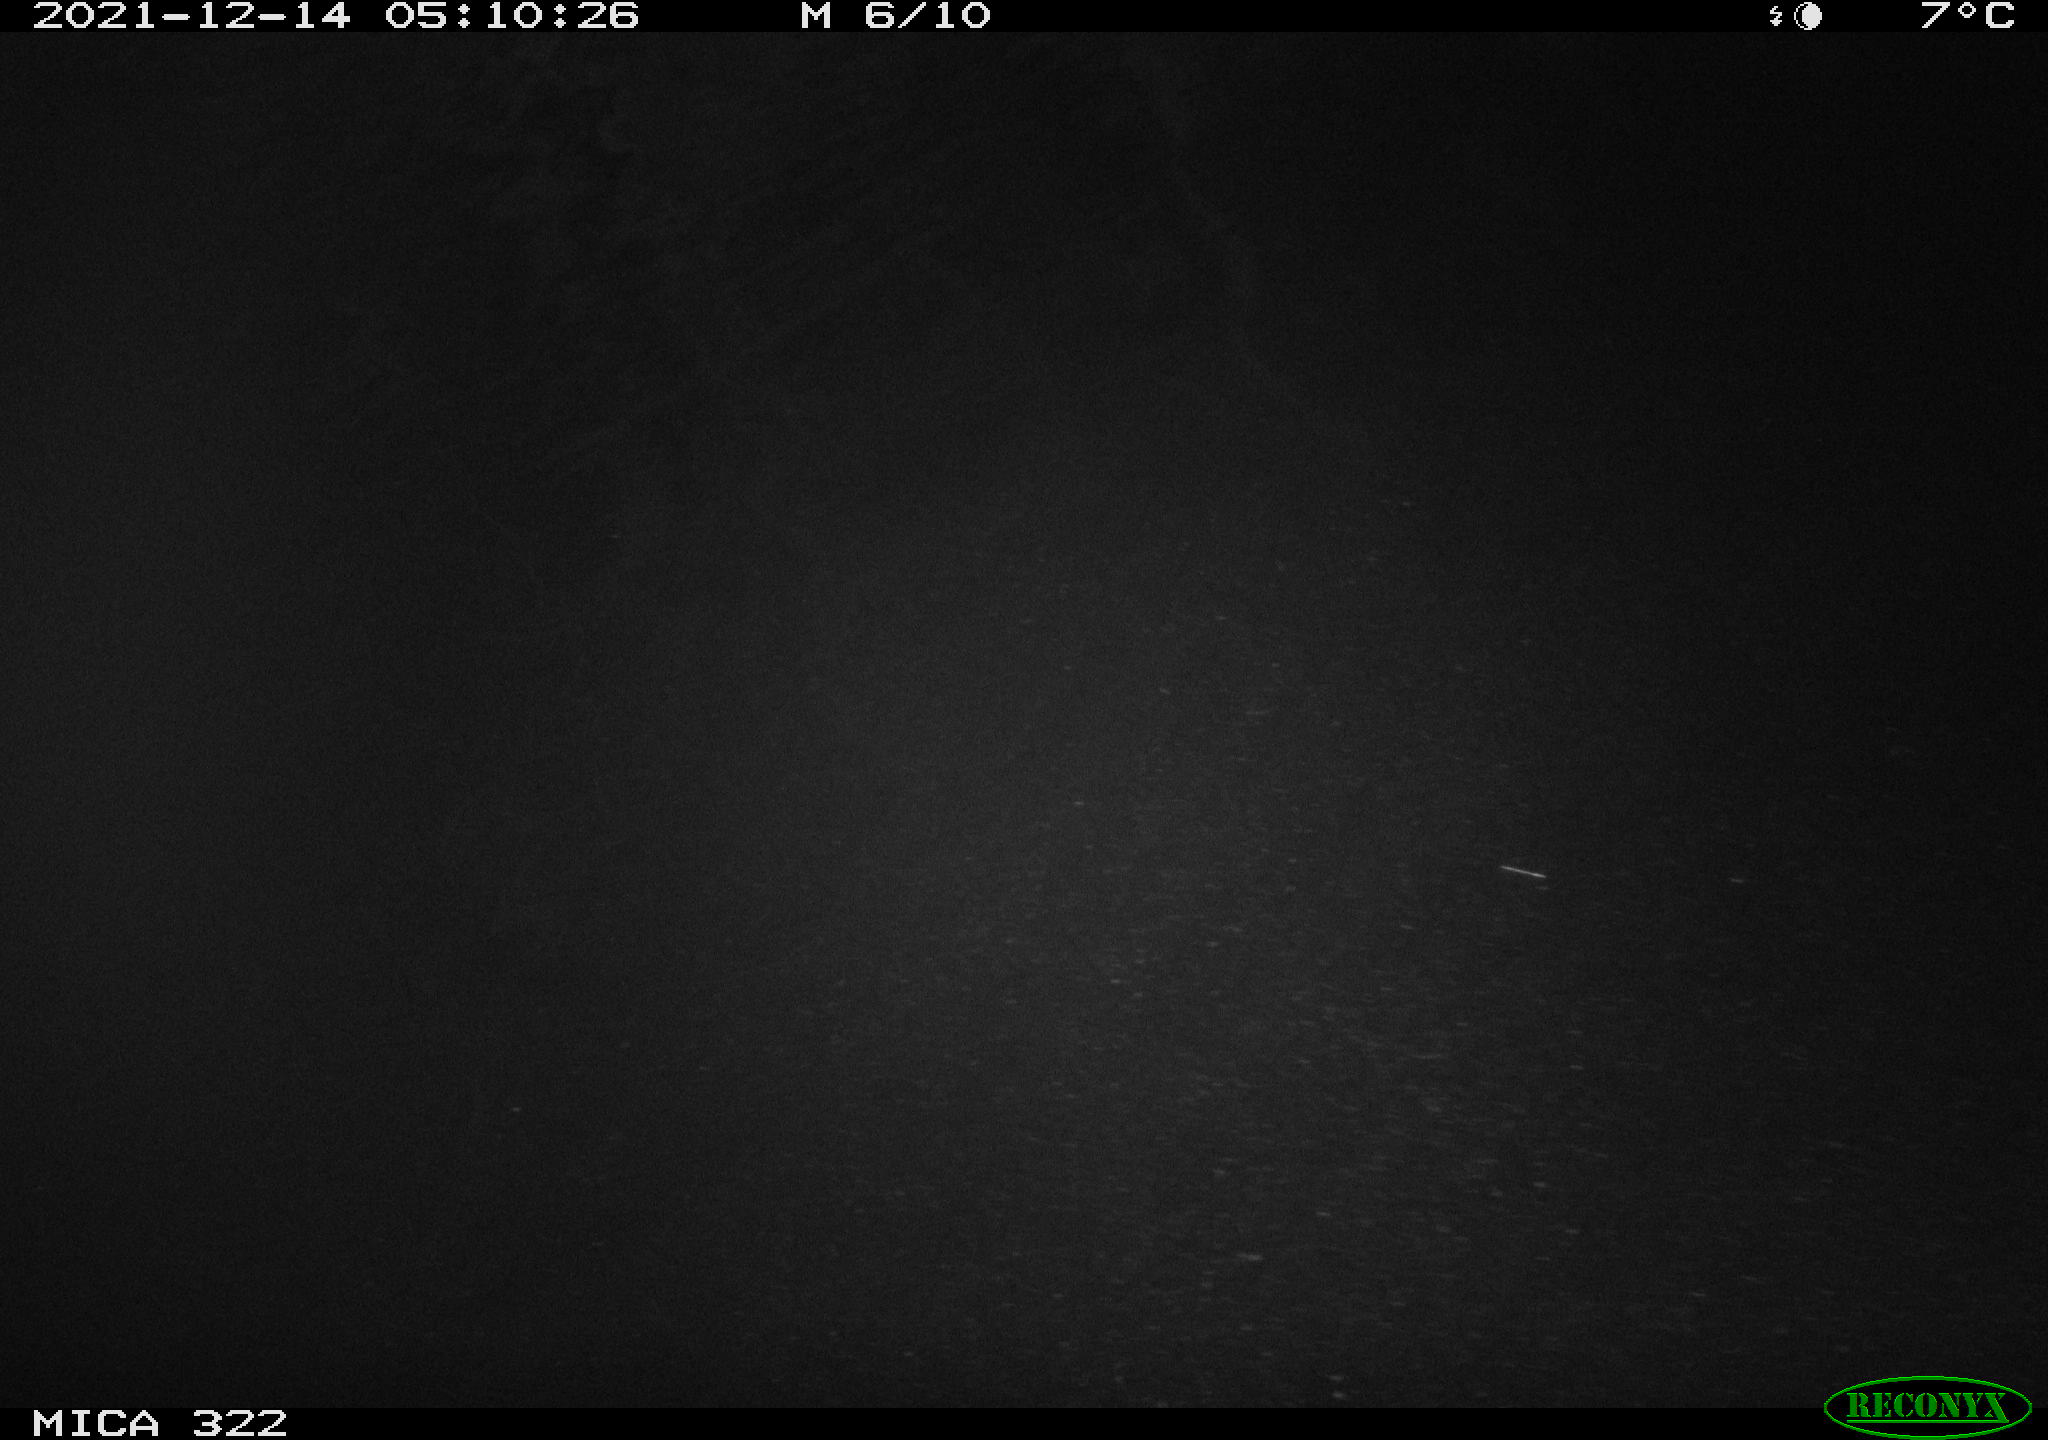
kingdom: Animalia
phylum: Chordata
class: Aves
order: Anseriformes
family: Anatidae
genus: Anas
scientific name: Anas
